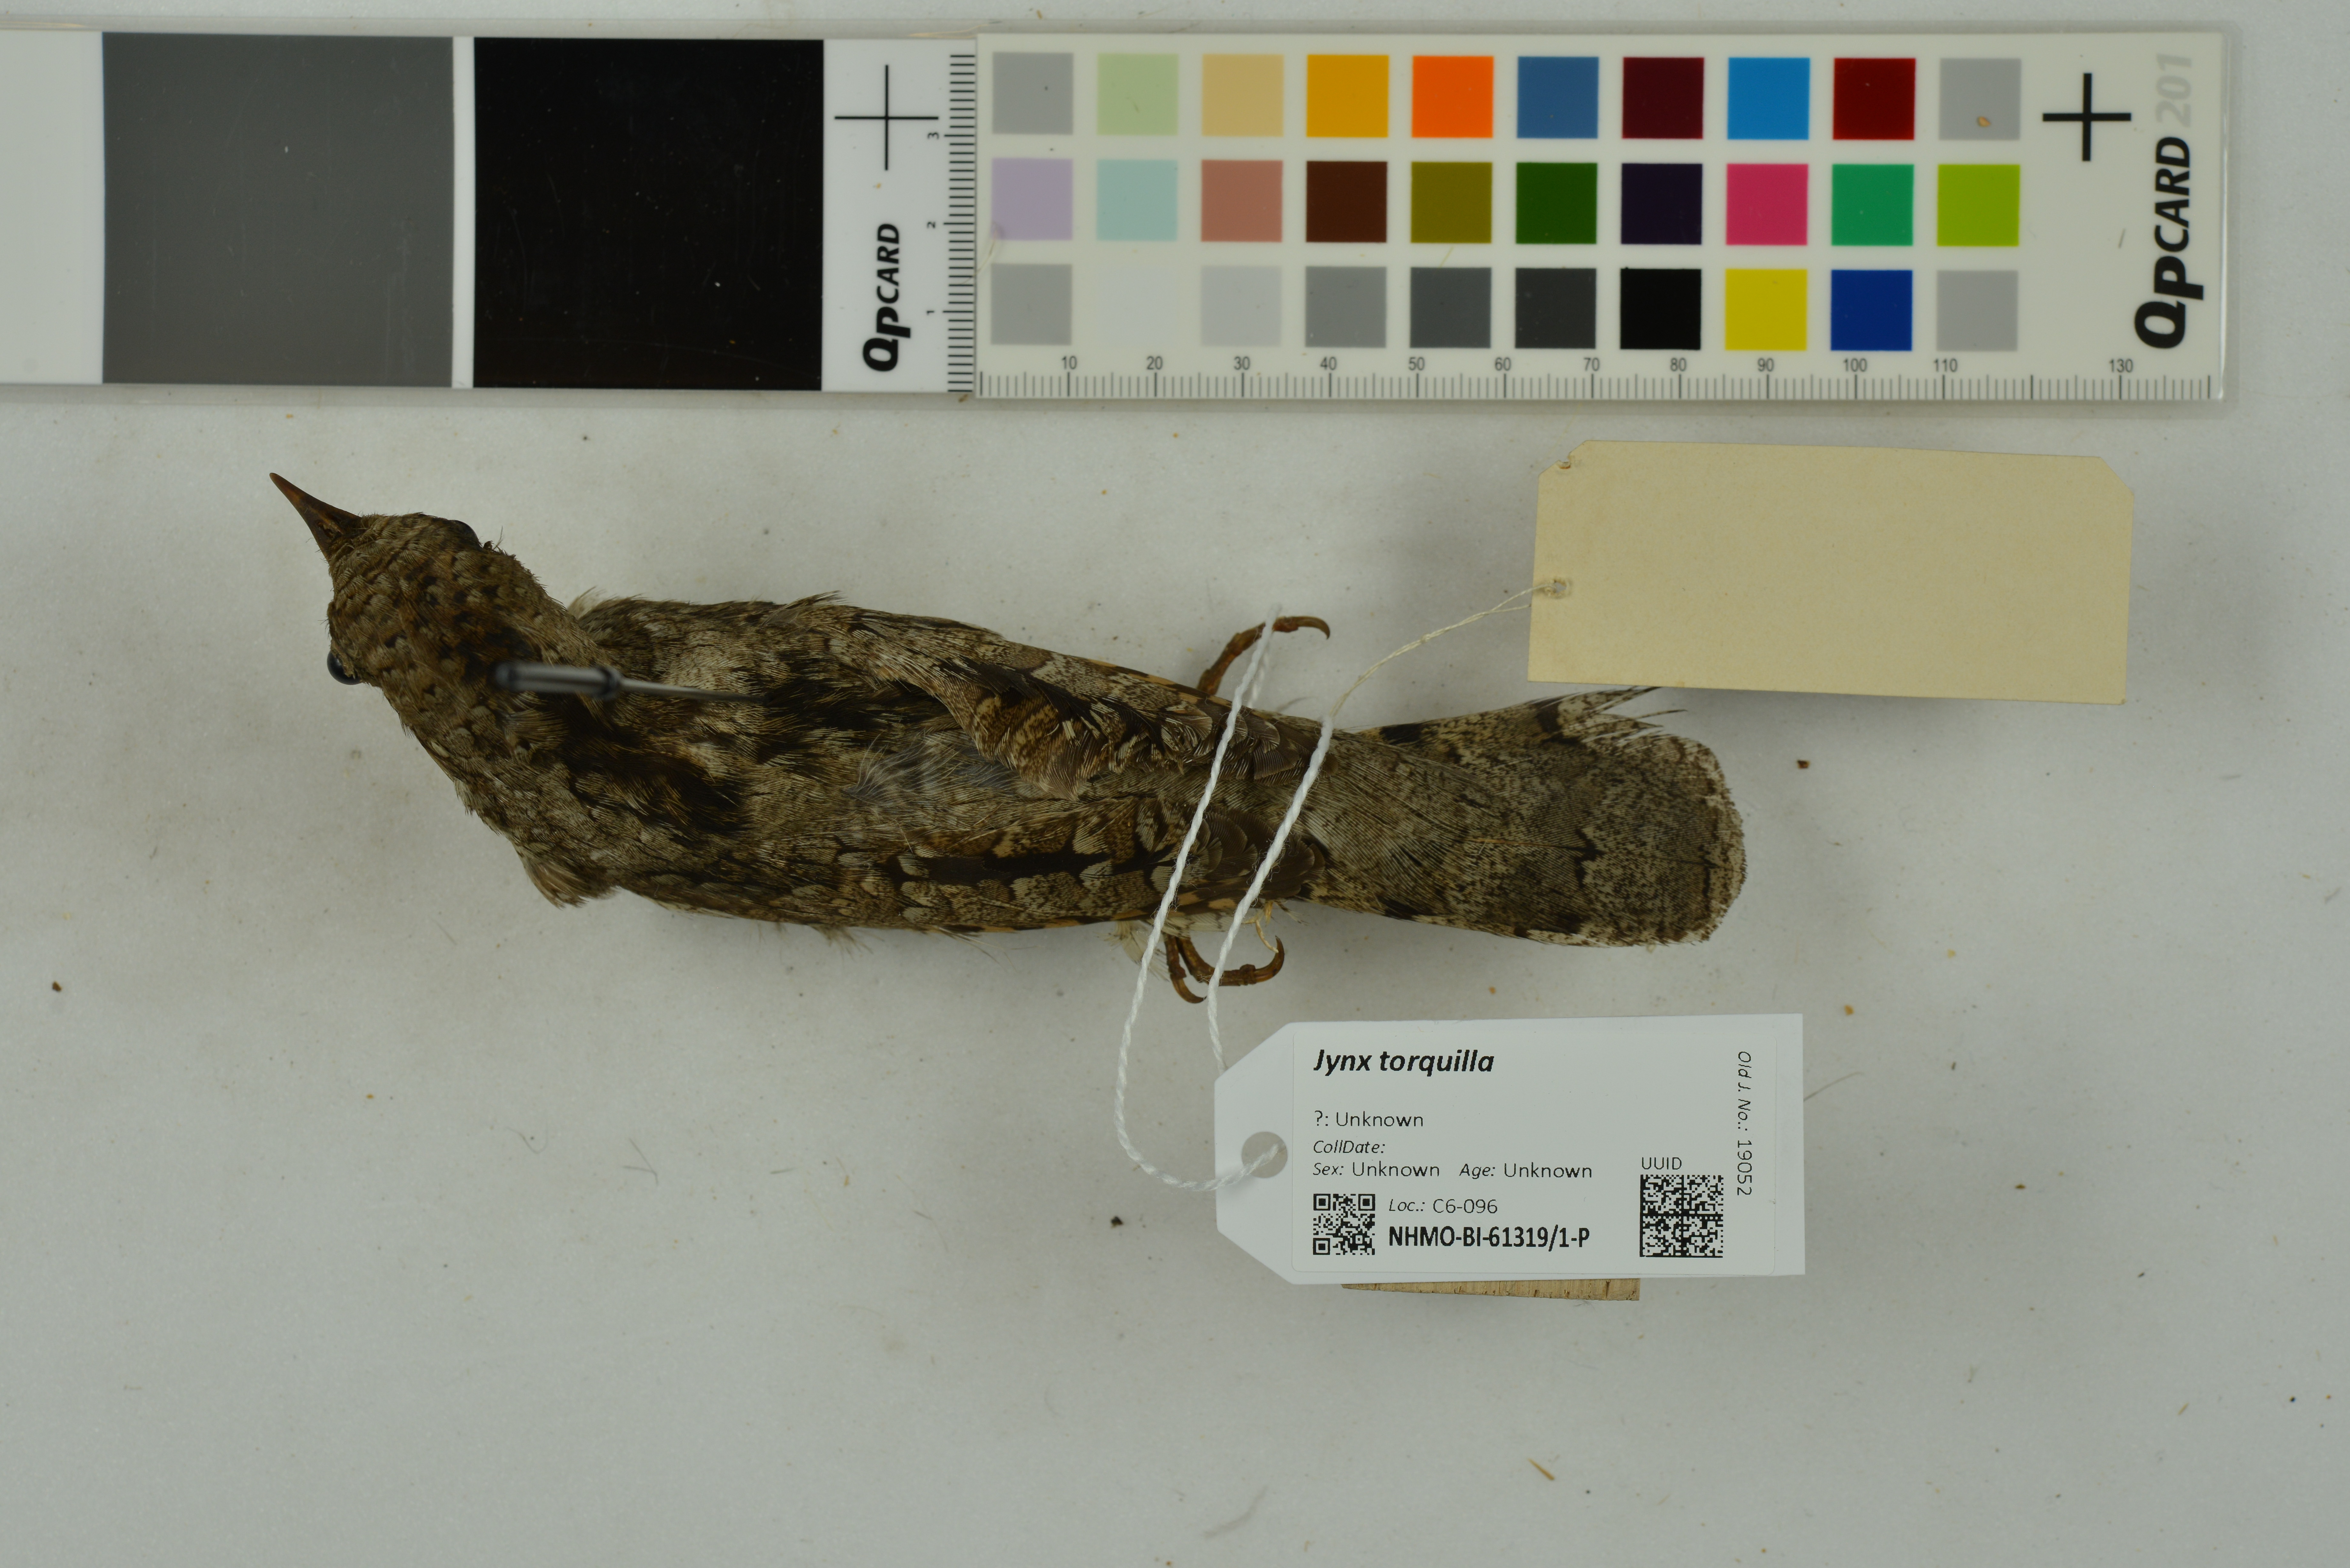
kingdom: Animalia
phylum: Chordata
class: Aves
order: Piciformes
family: Picidae
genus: Jynx
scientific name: Jynx torquilla
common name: Eurasian wryneck
